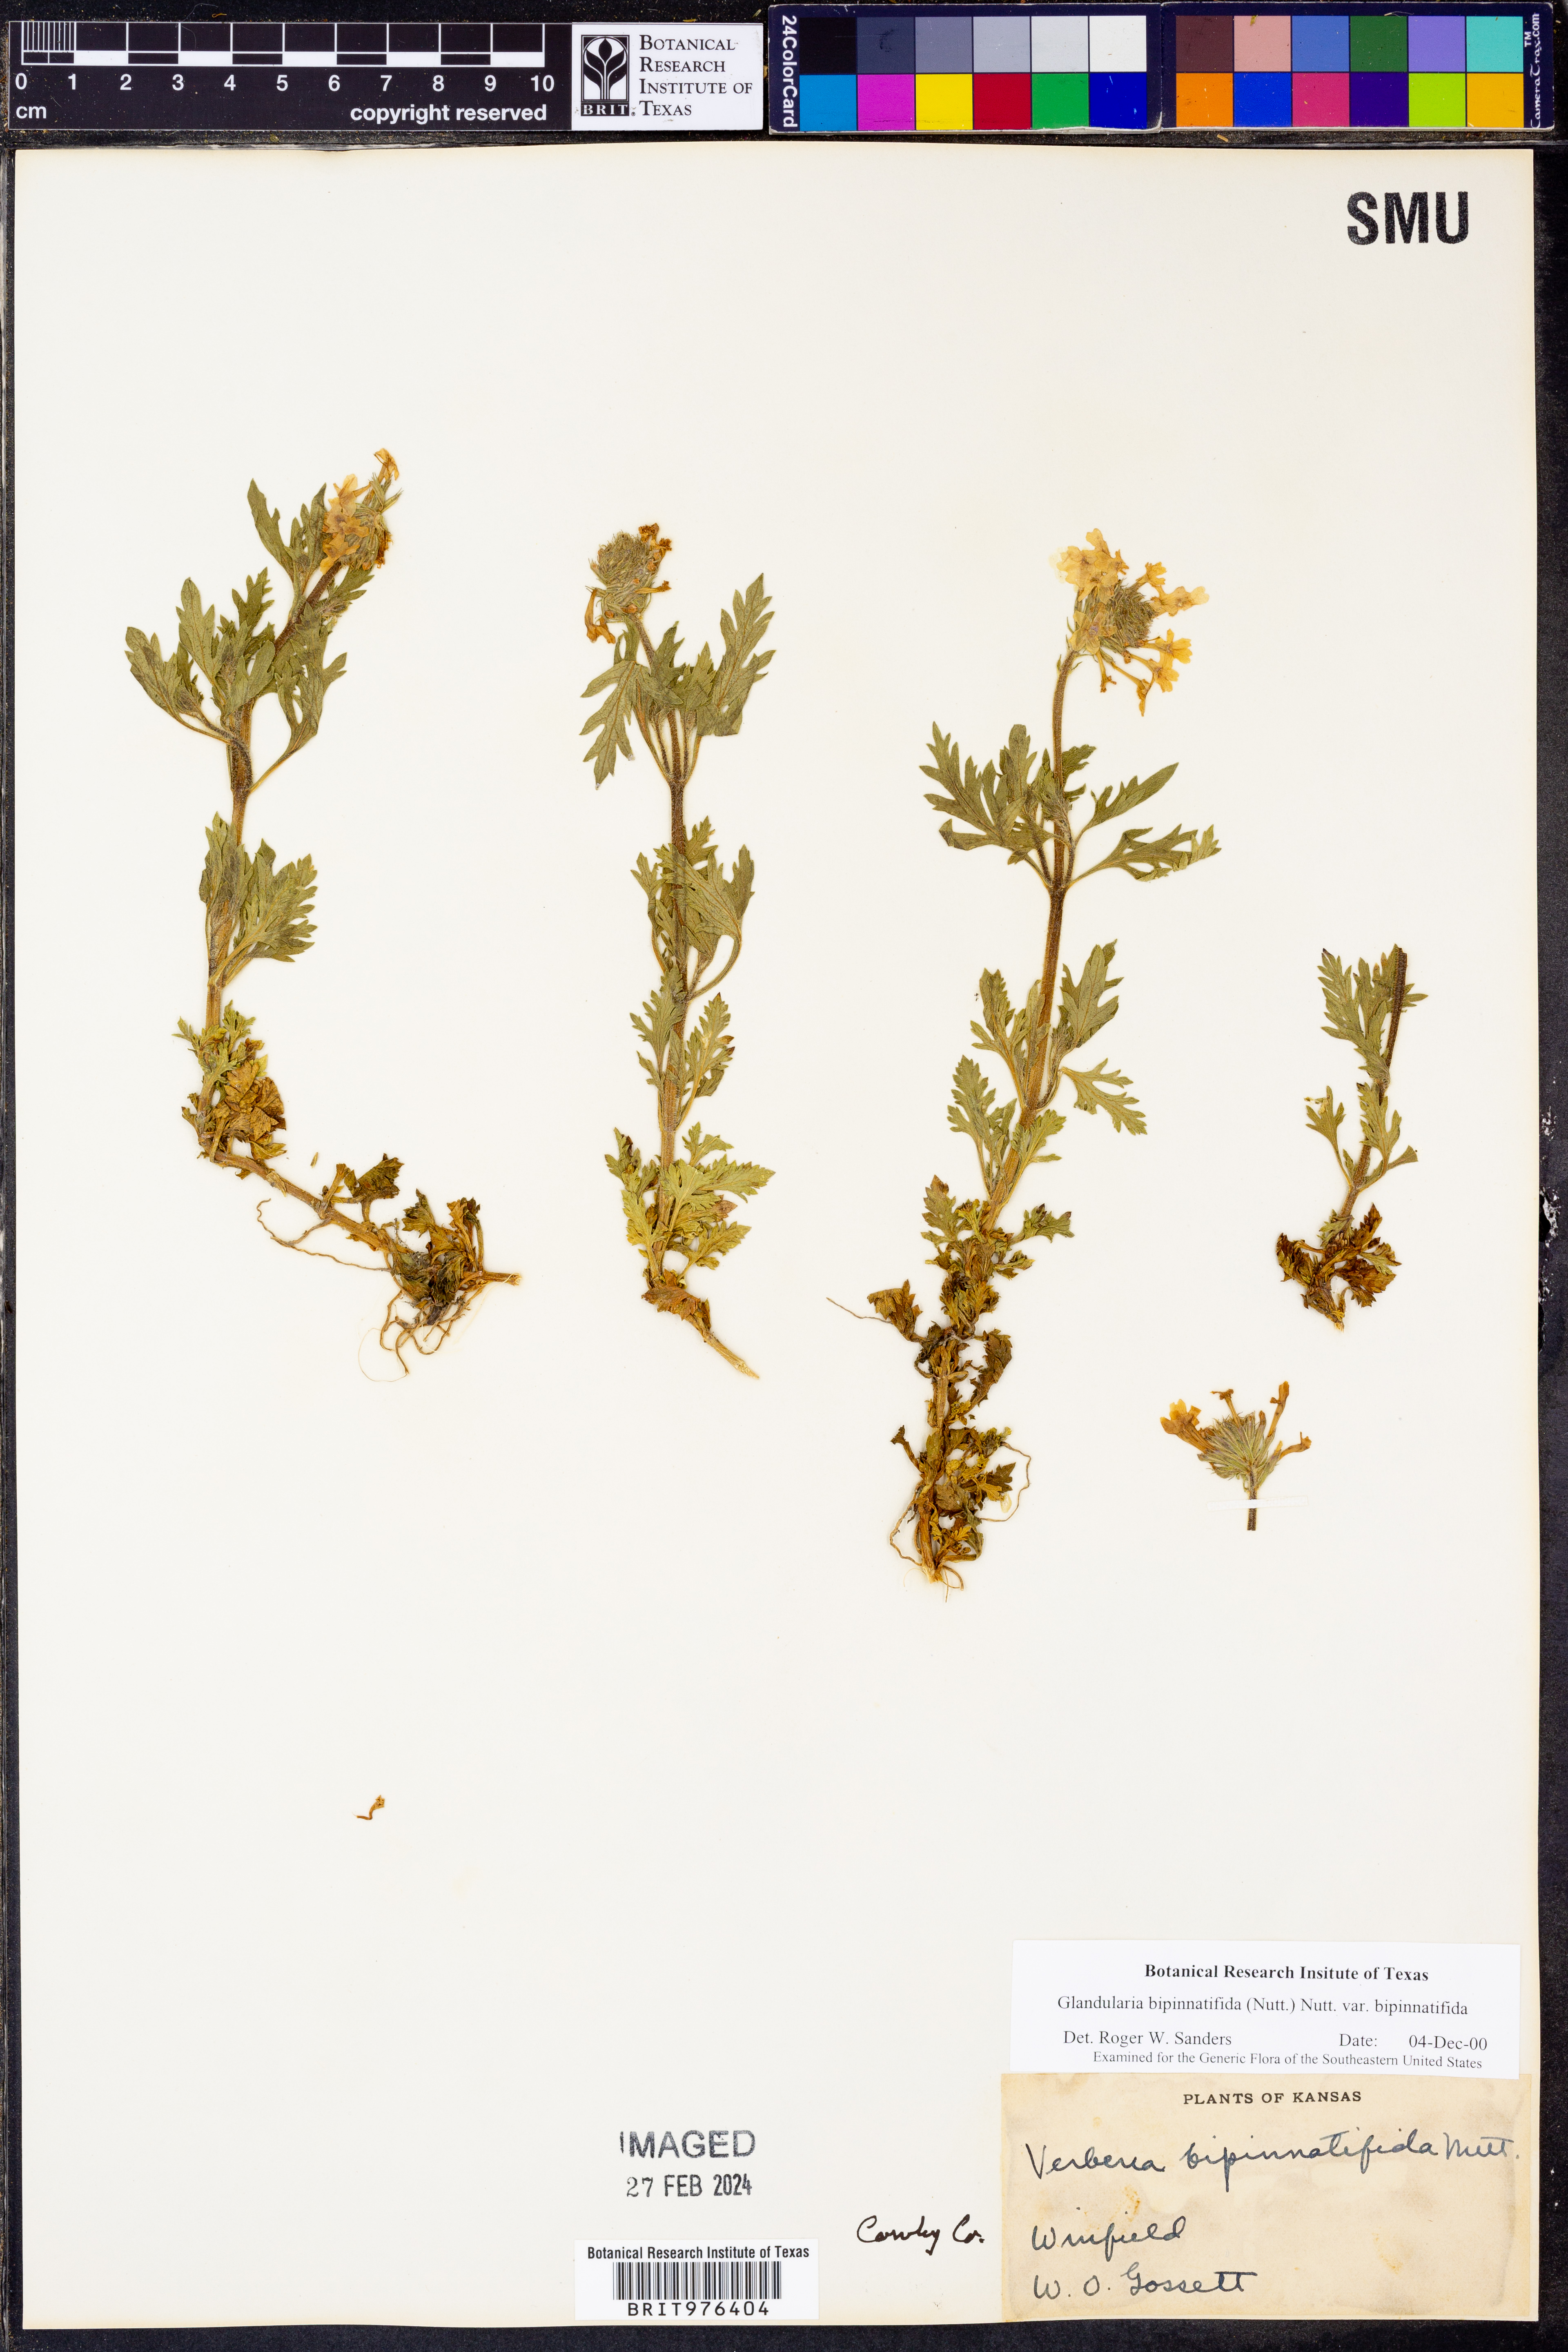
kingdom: Plantae
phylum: Tracheophyta
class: Magnoliopsida
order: Lamiales
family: Verbenaceae
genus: Verbena
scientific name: Verbena bipinnatifida
